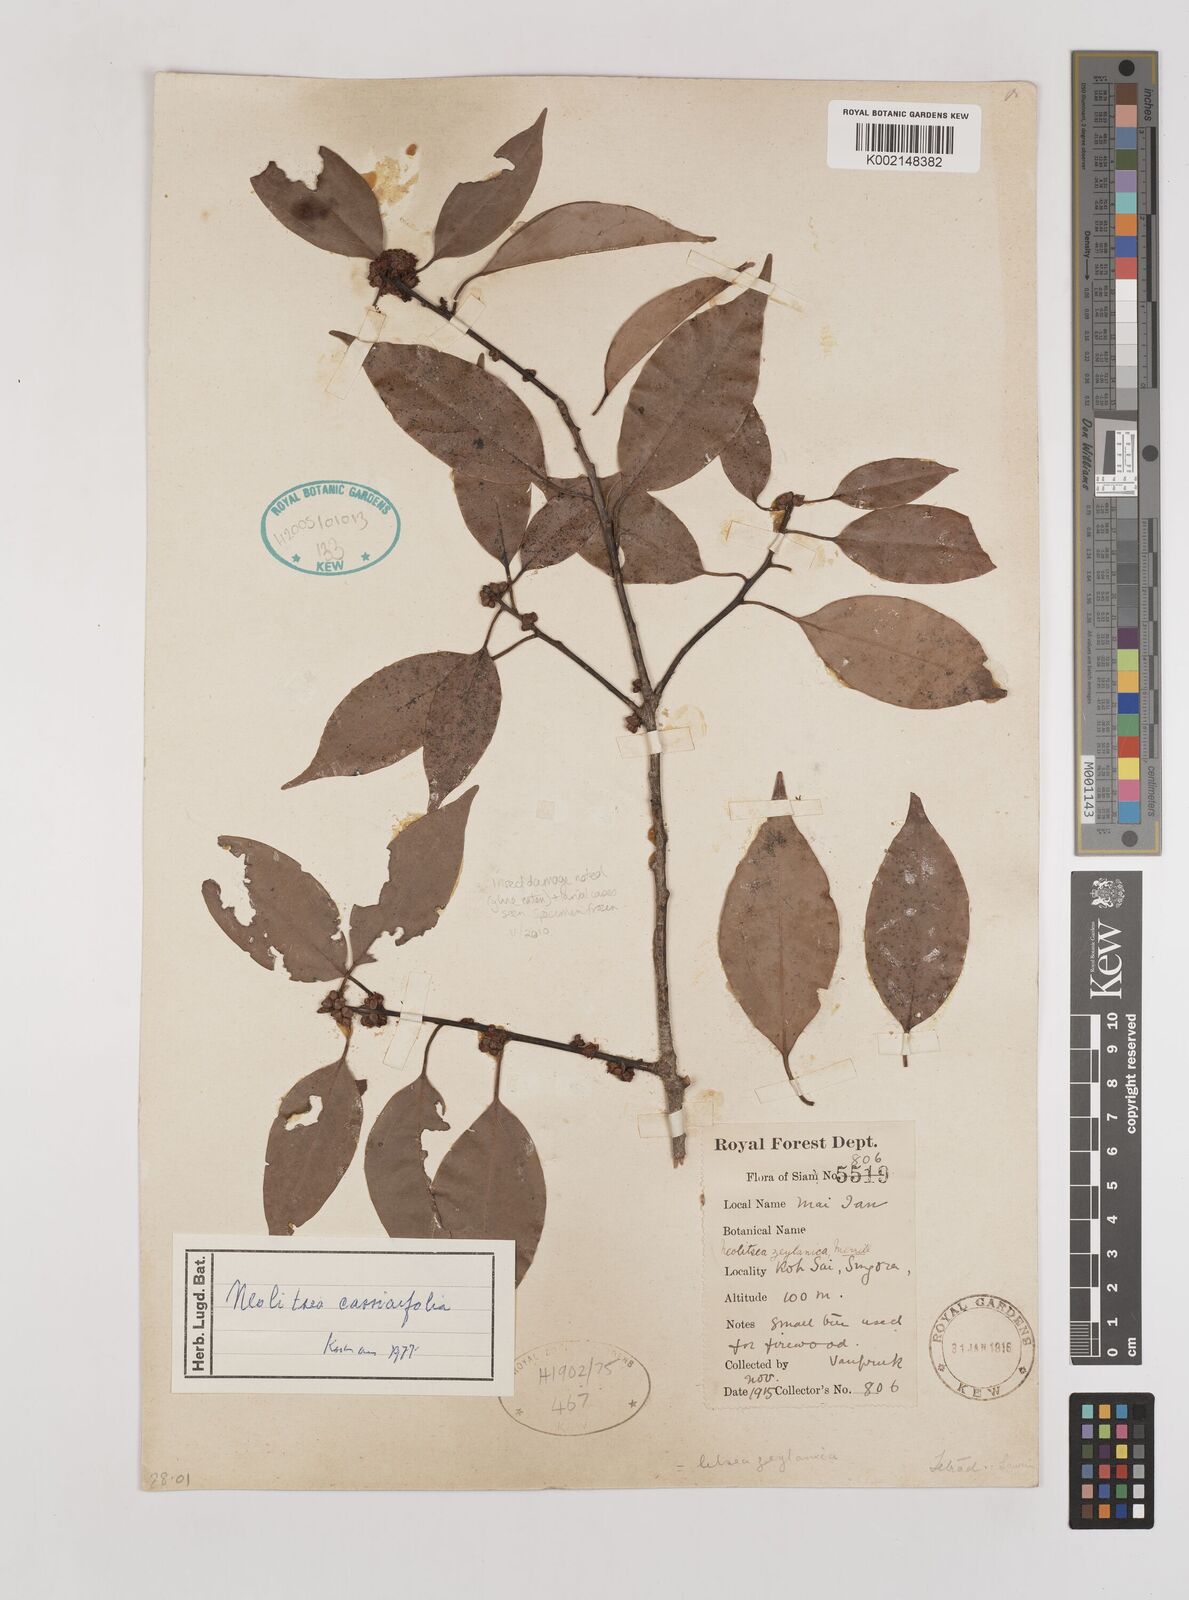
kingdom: Plantae
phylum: Tracheophyta
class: Magnoliopsida
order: Laurales
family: Lauraceae
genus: Neolitsea
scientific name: Neolitsea cassiifolia
